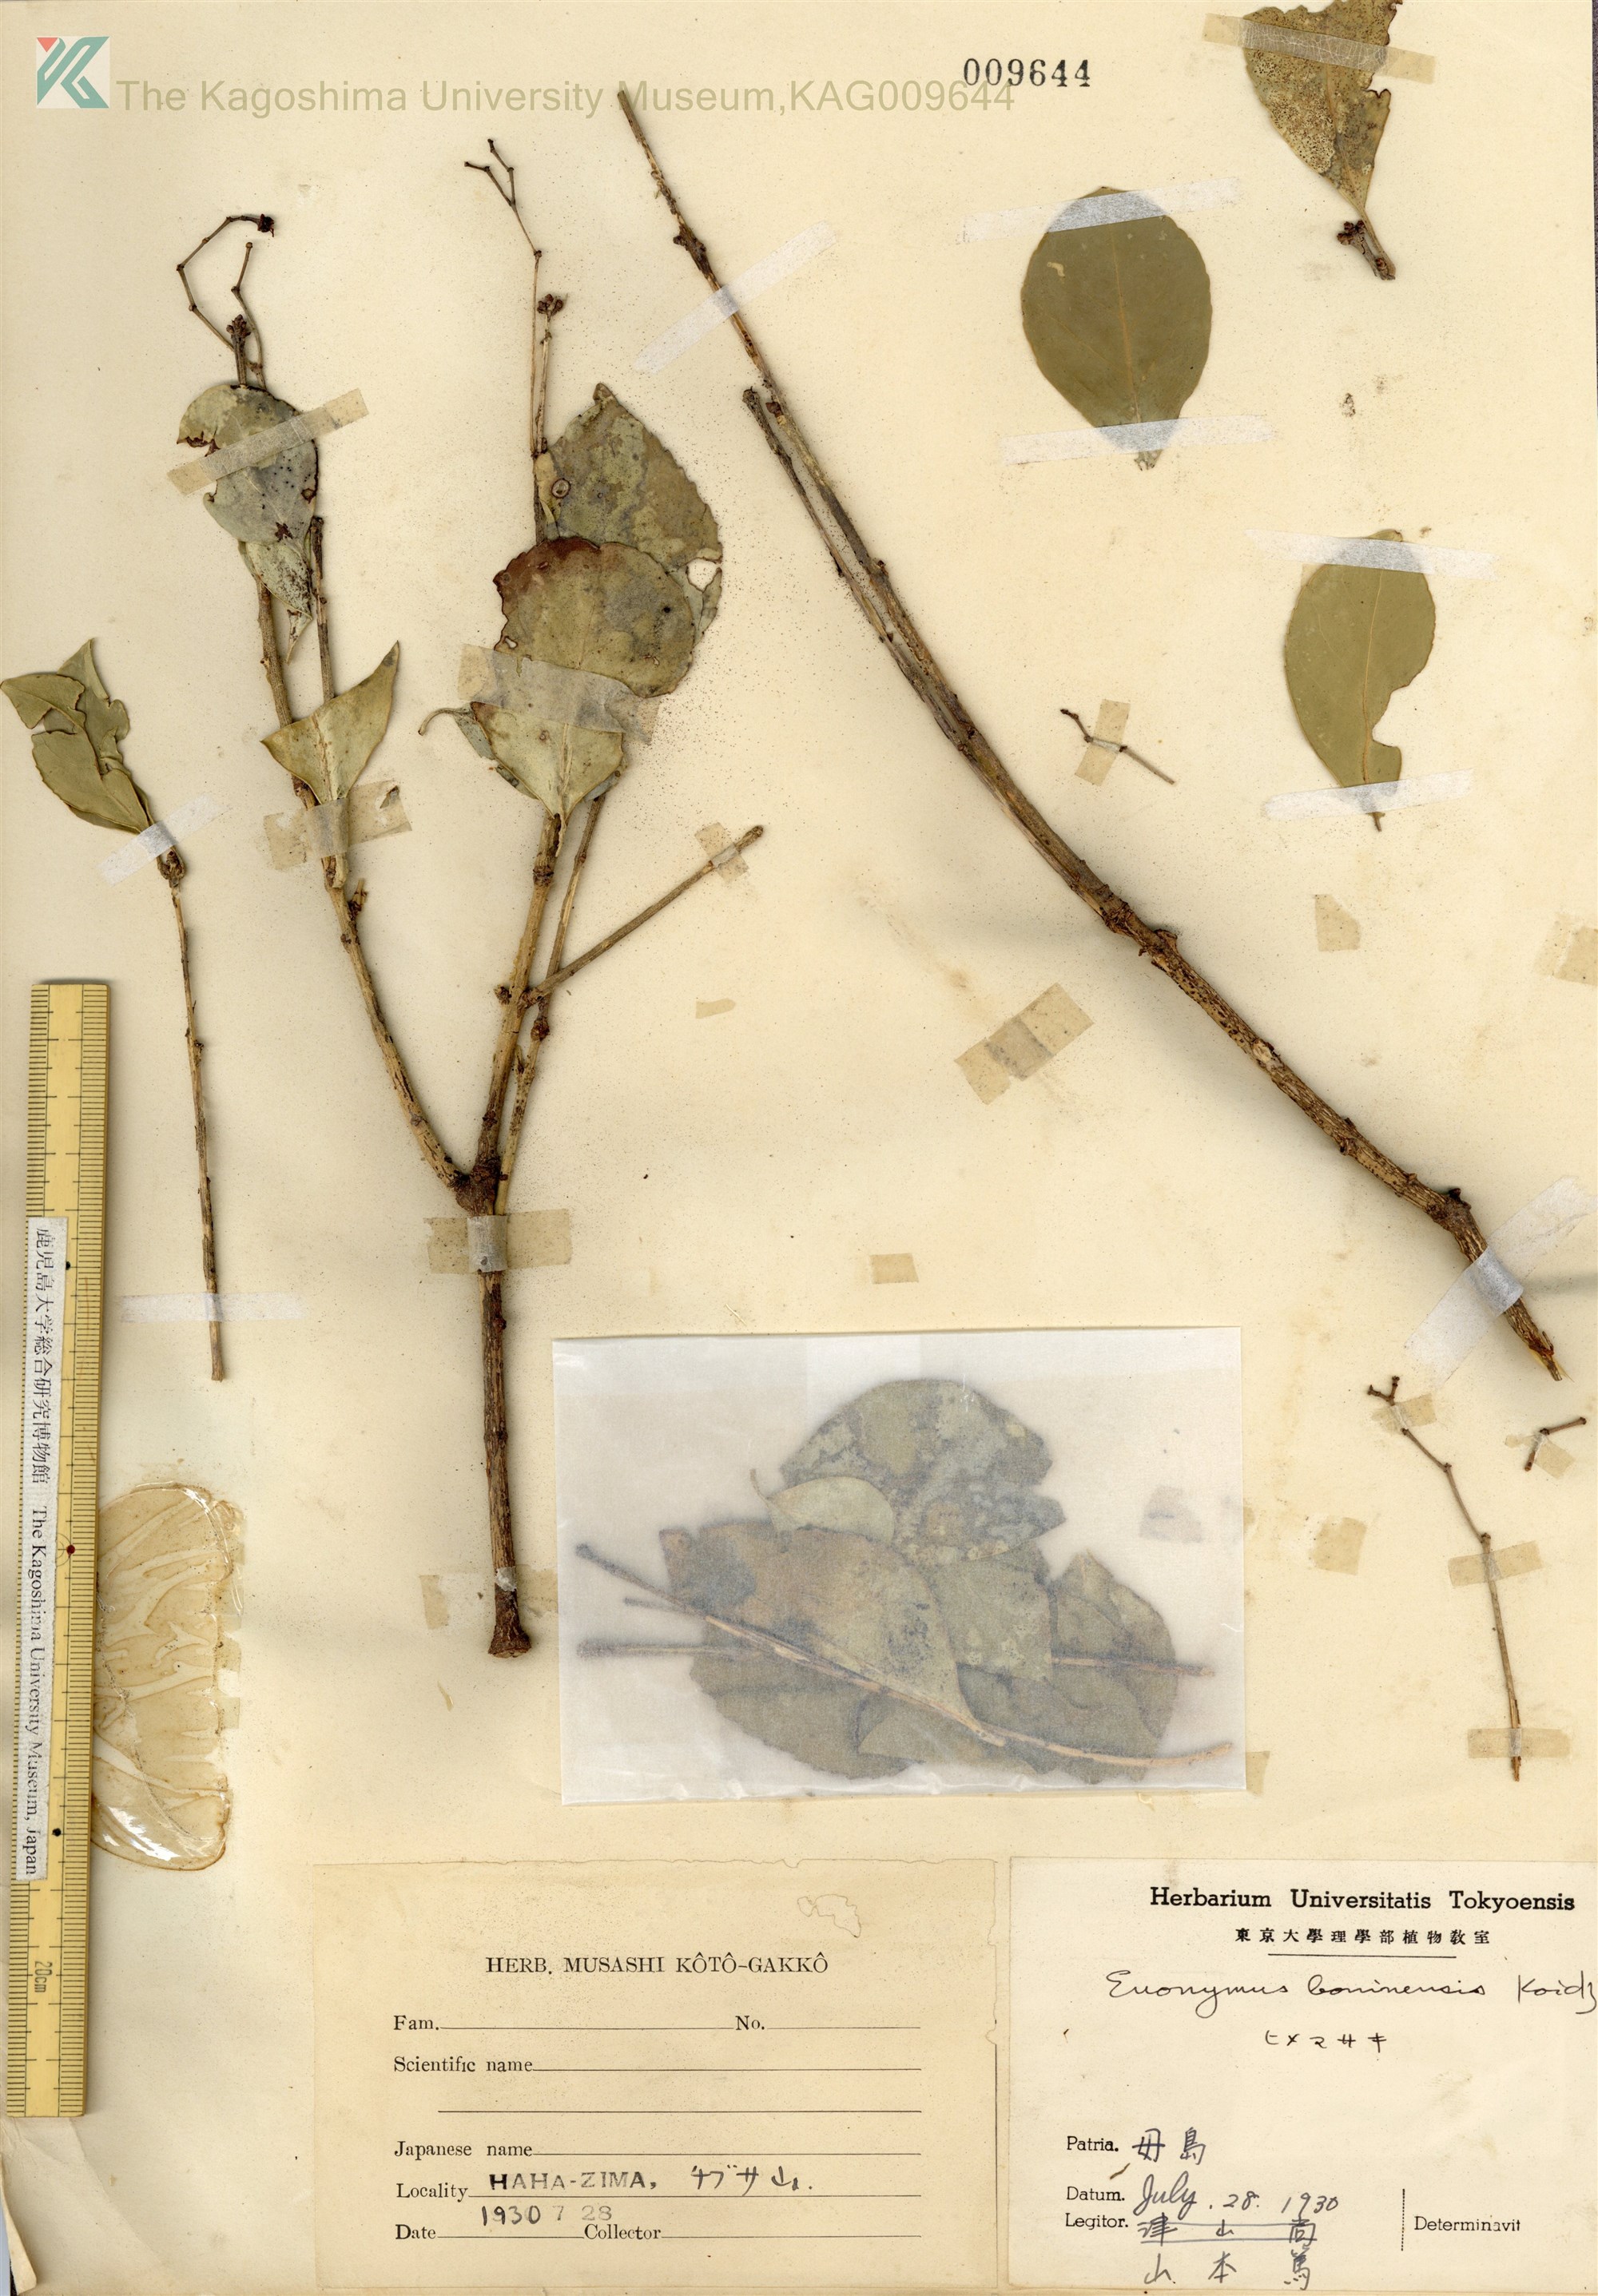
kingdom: Plantae
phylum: Tracheophyta
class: Magnoliopsida
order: Celastrales
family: Celastraceae
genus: Euonymus
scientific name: Euonymus japonicus
